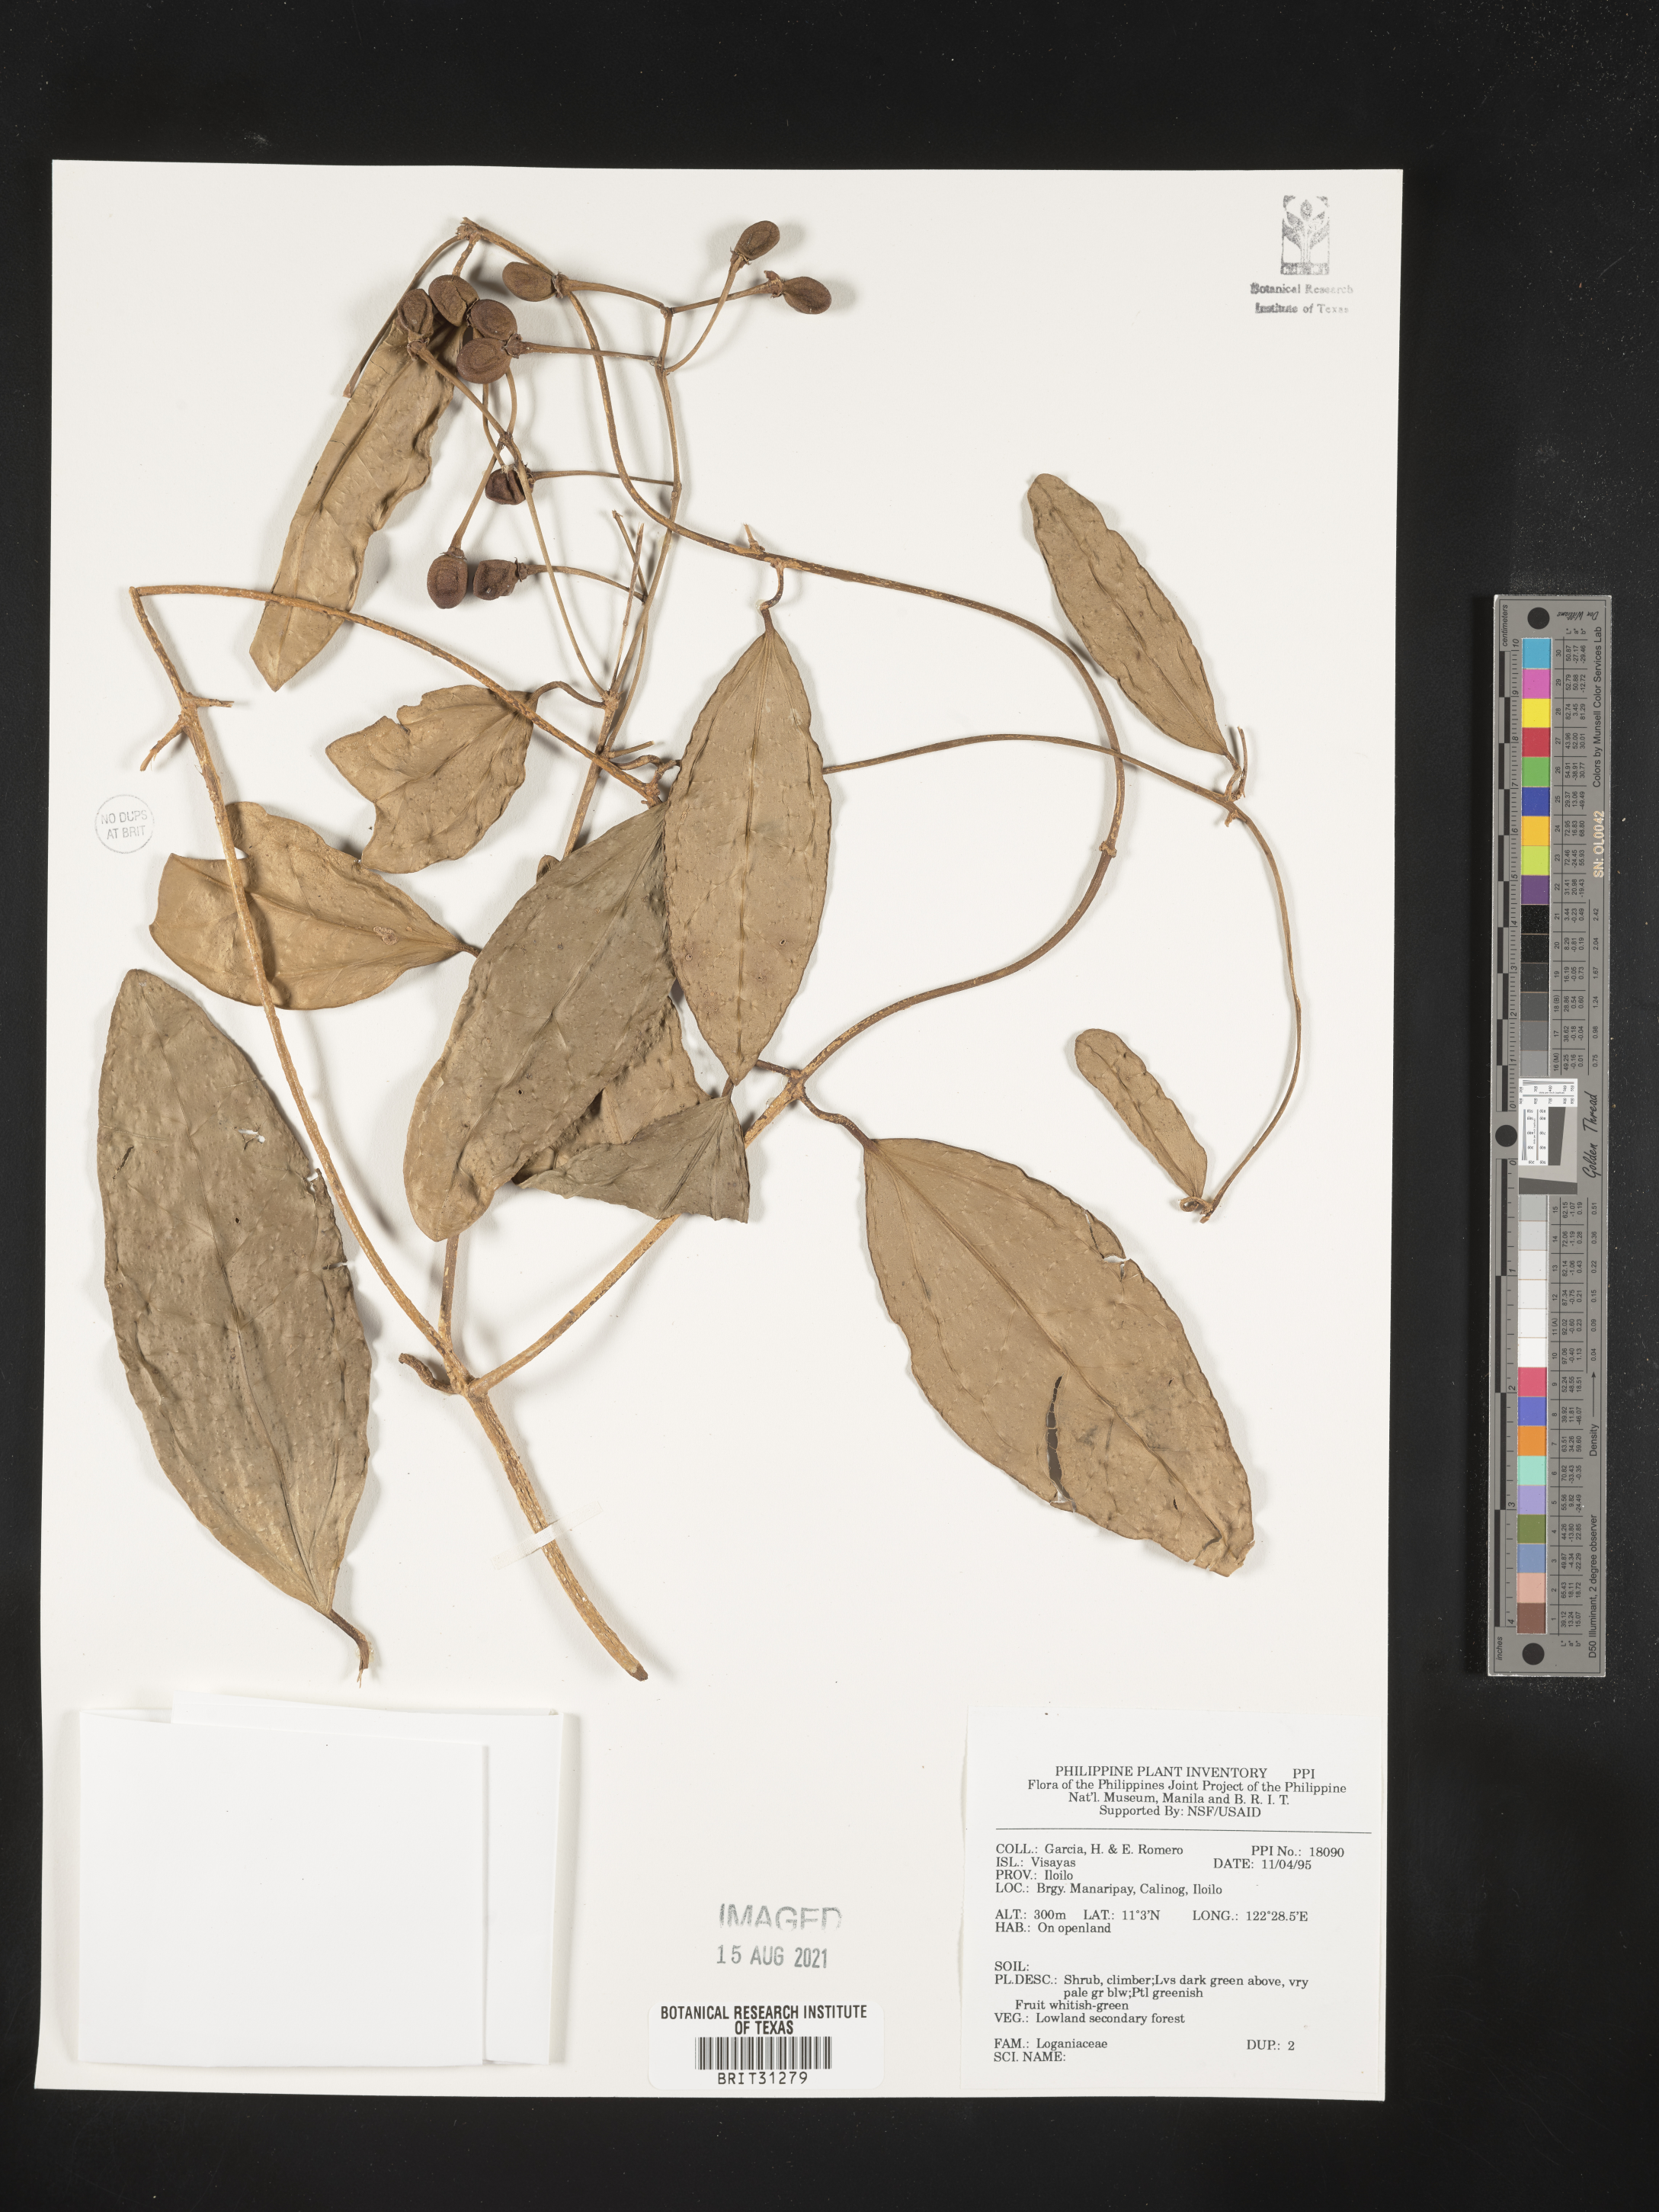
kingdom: Plantae
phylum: Tracheophyta
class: Magnoliopsida
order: Gentianales
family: Loganiaceae
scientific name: Loganiaceae
